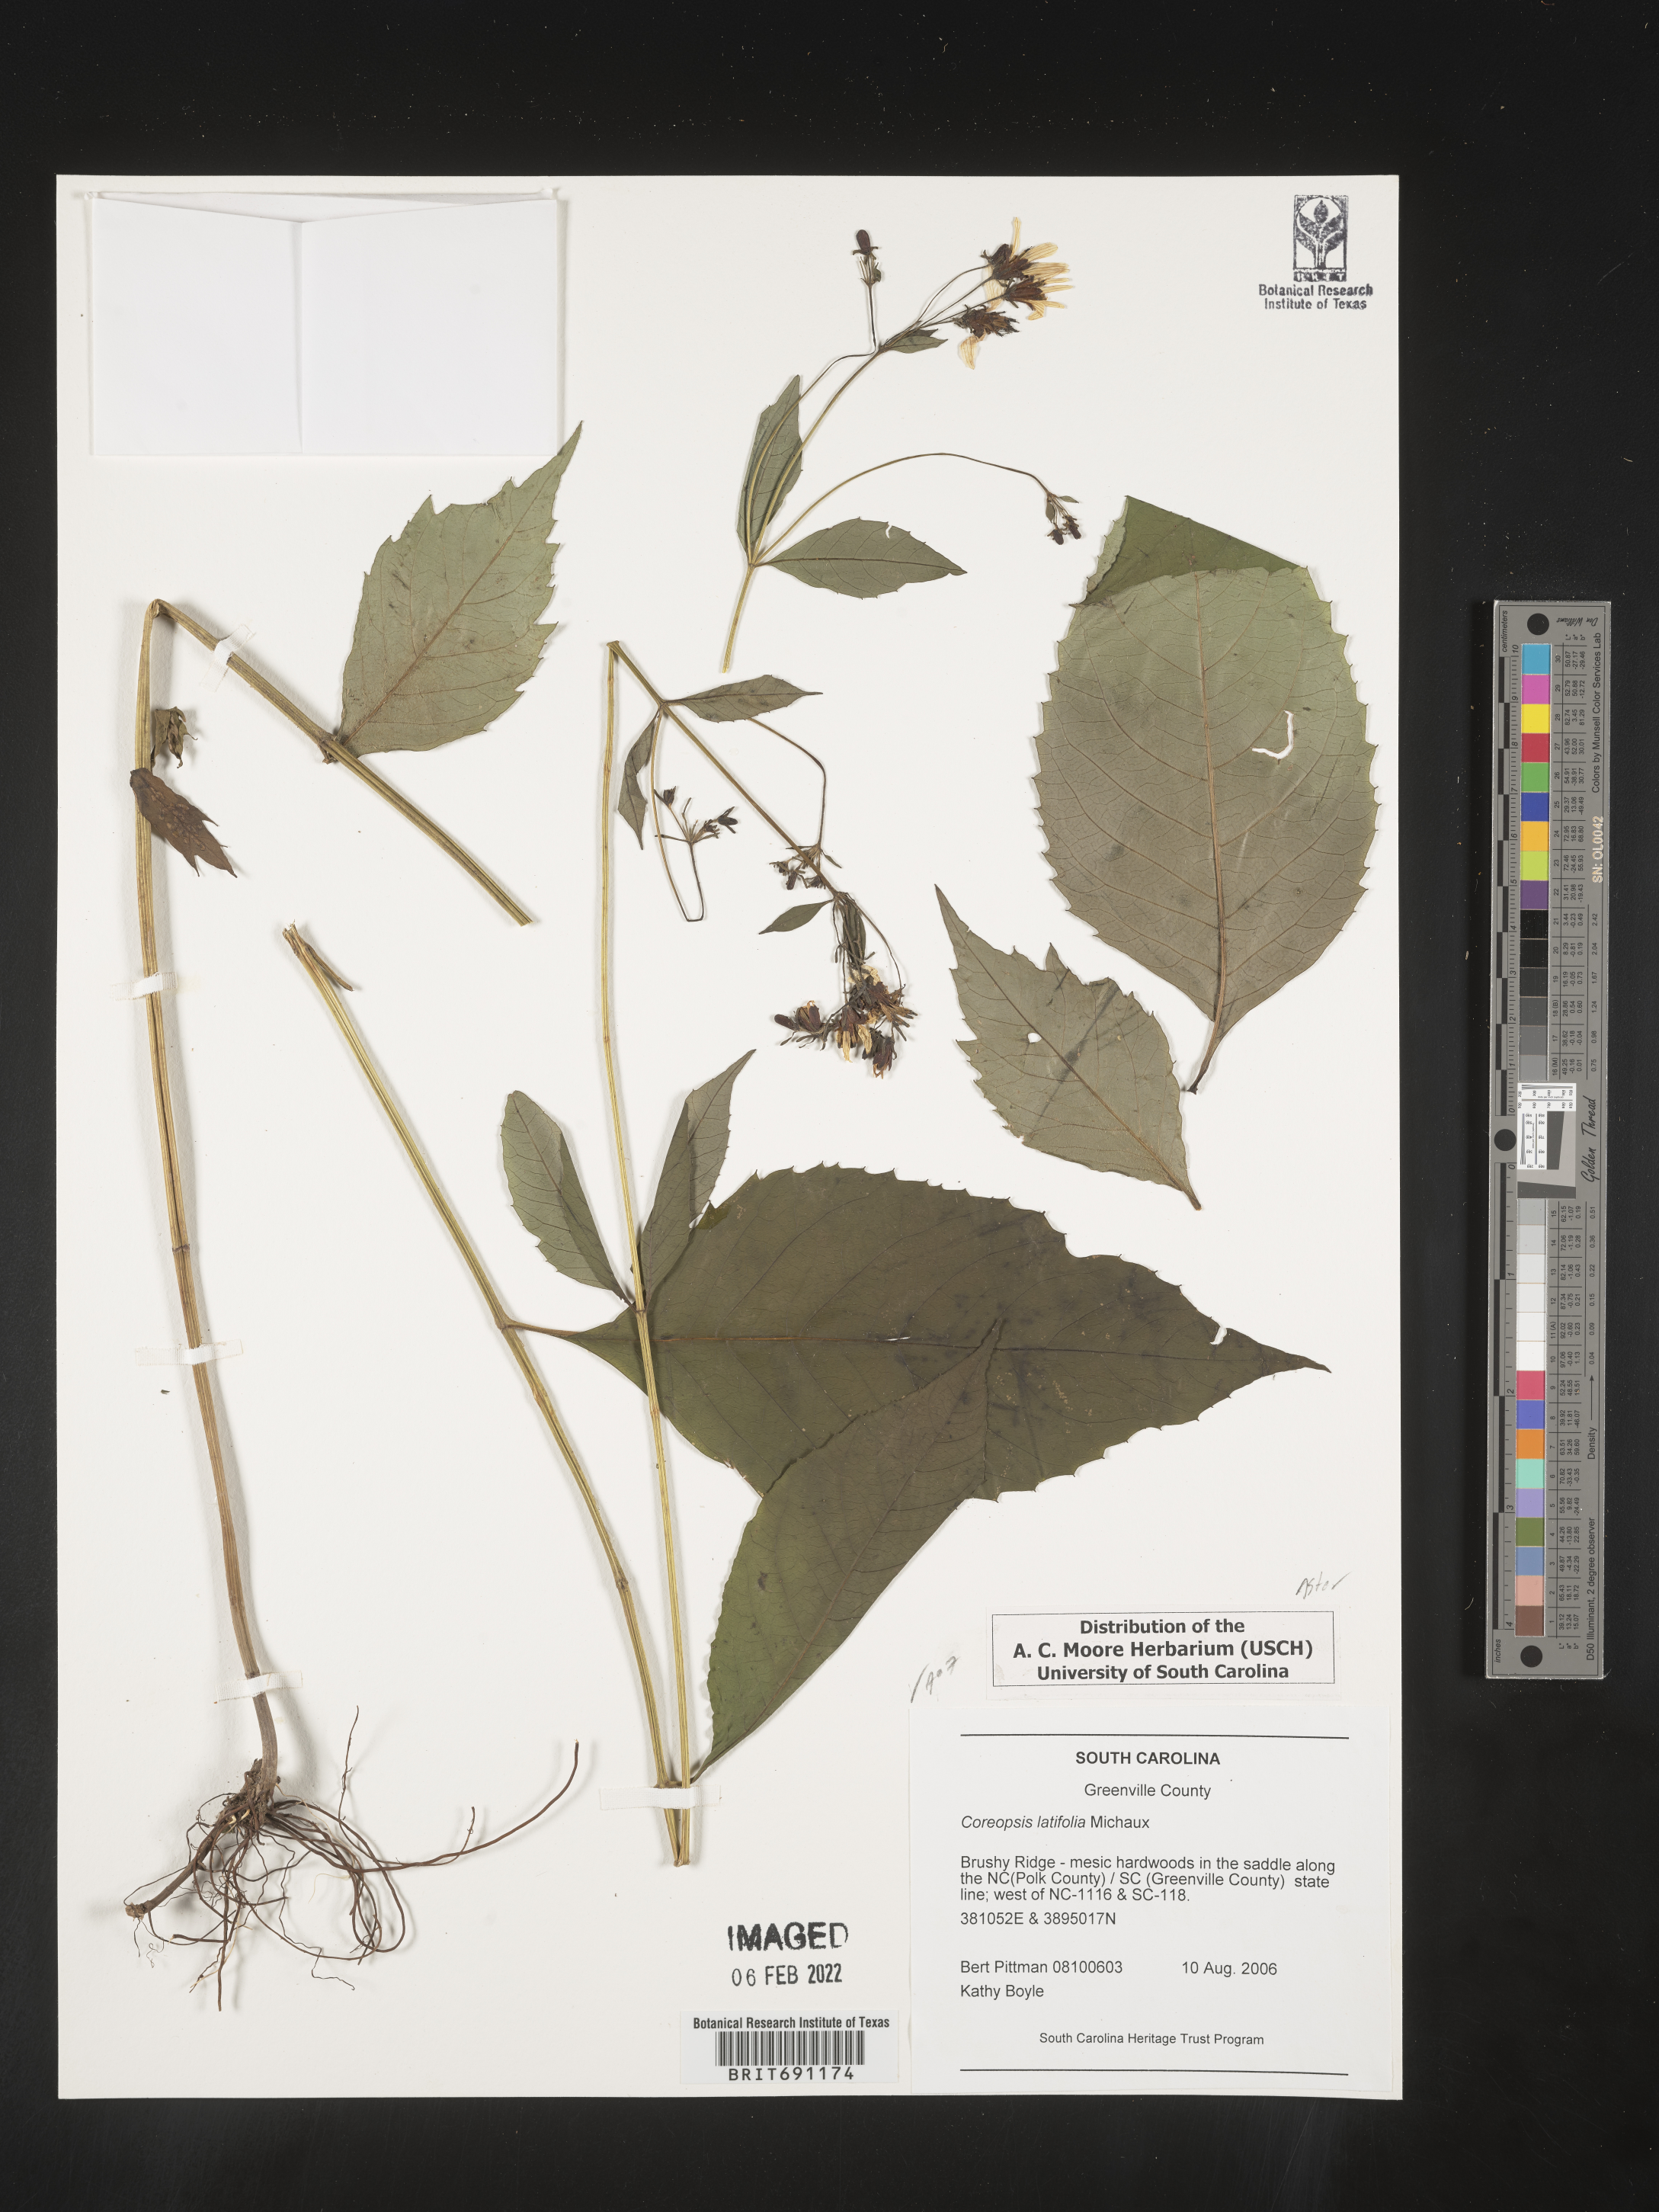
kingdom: Plantae
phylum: Tracheophyta
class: Magnoliopsida
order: Asterales
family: Asteraceae
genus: Coreopsis
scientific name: Coreopsis latifolia
